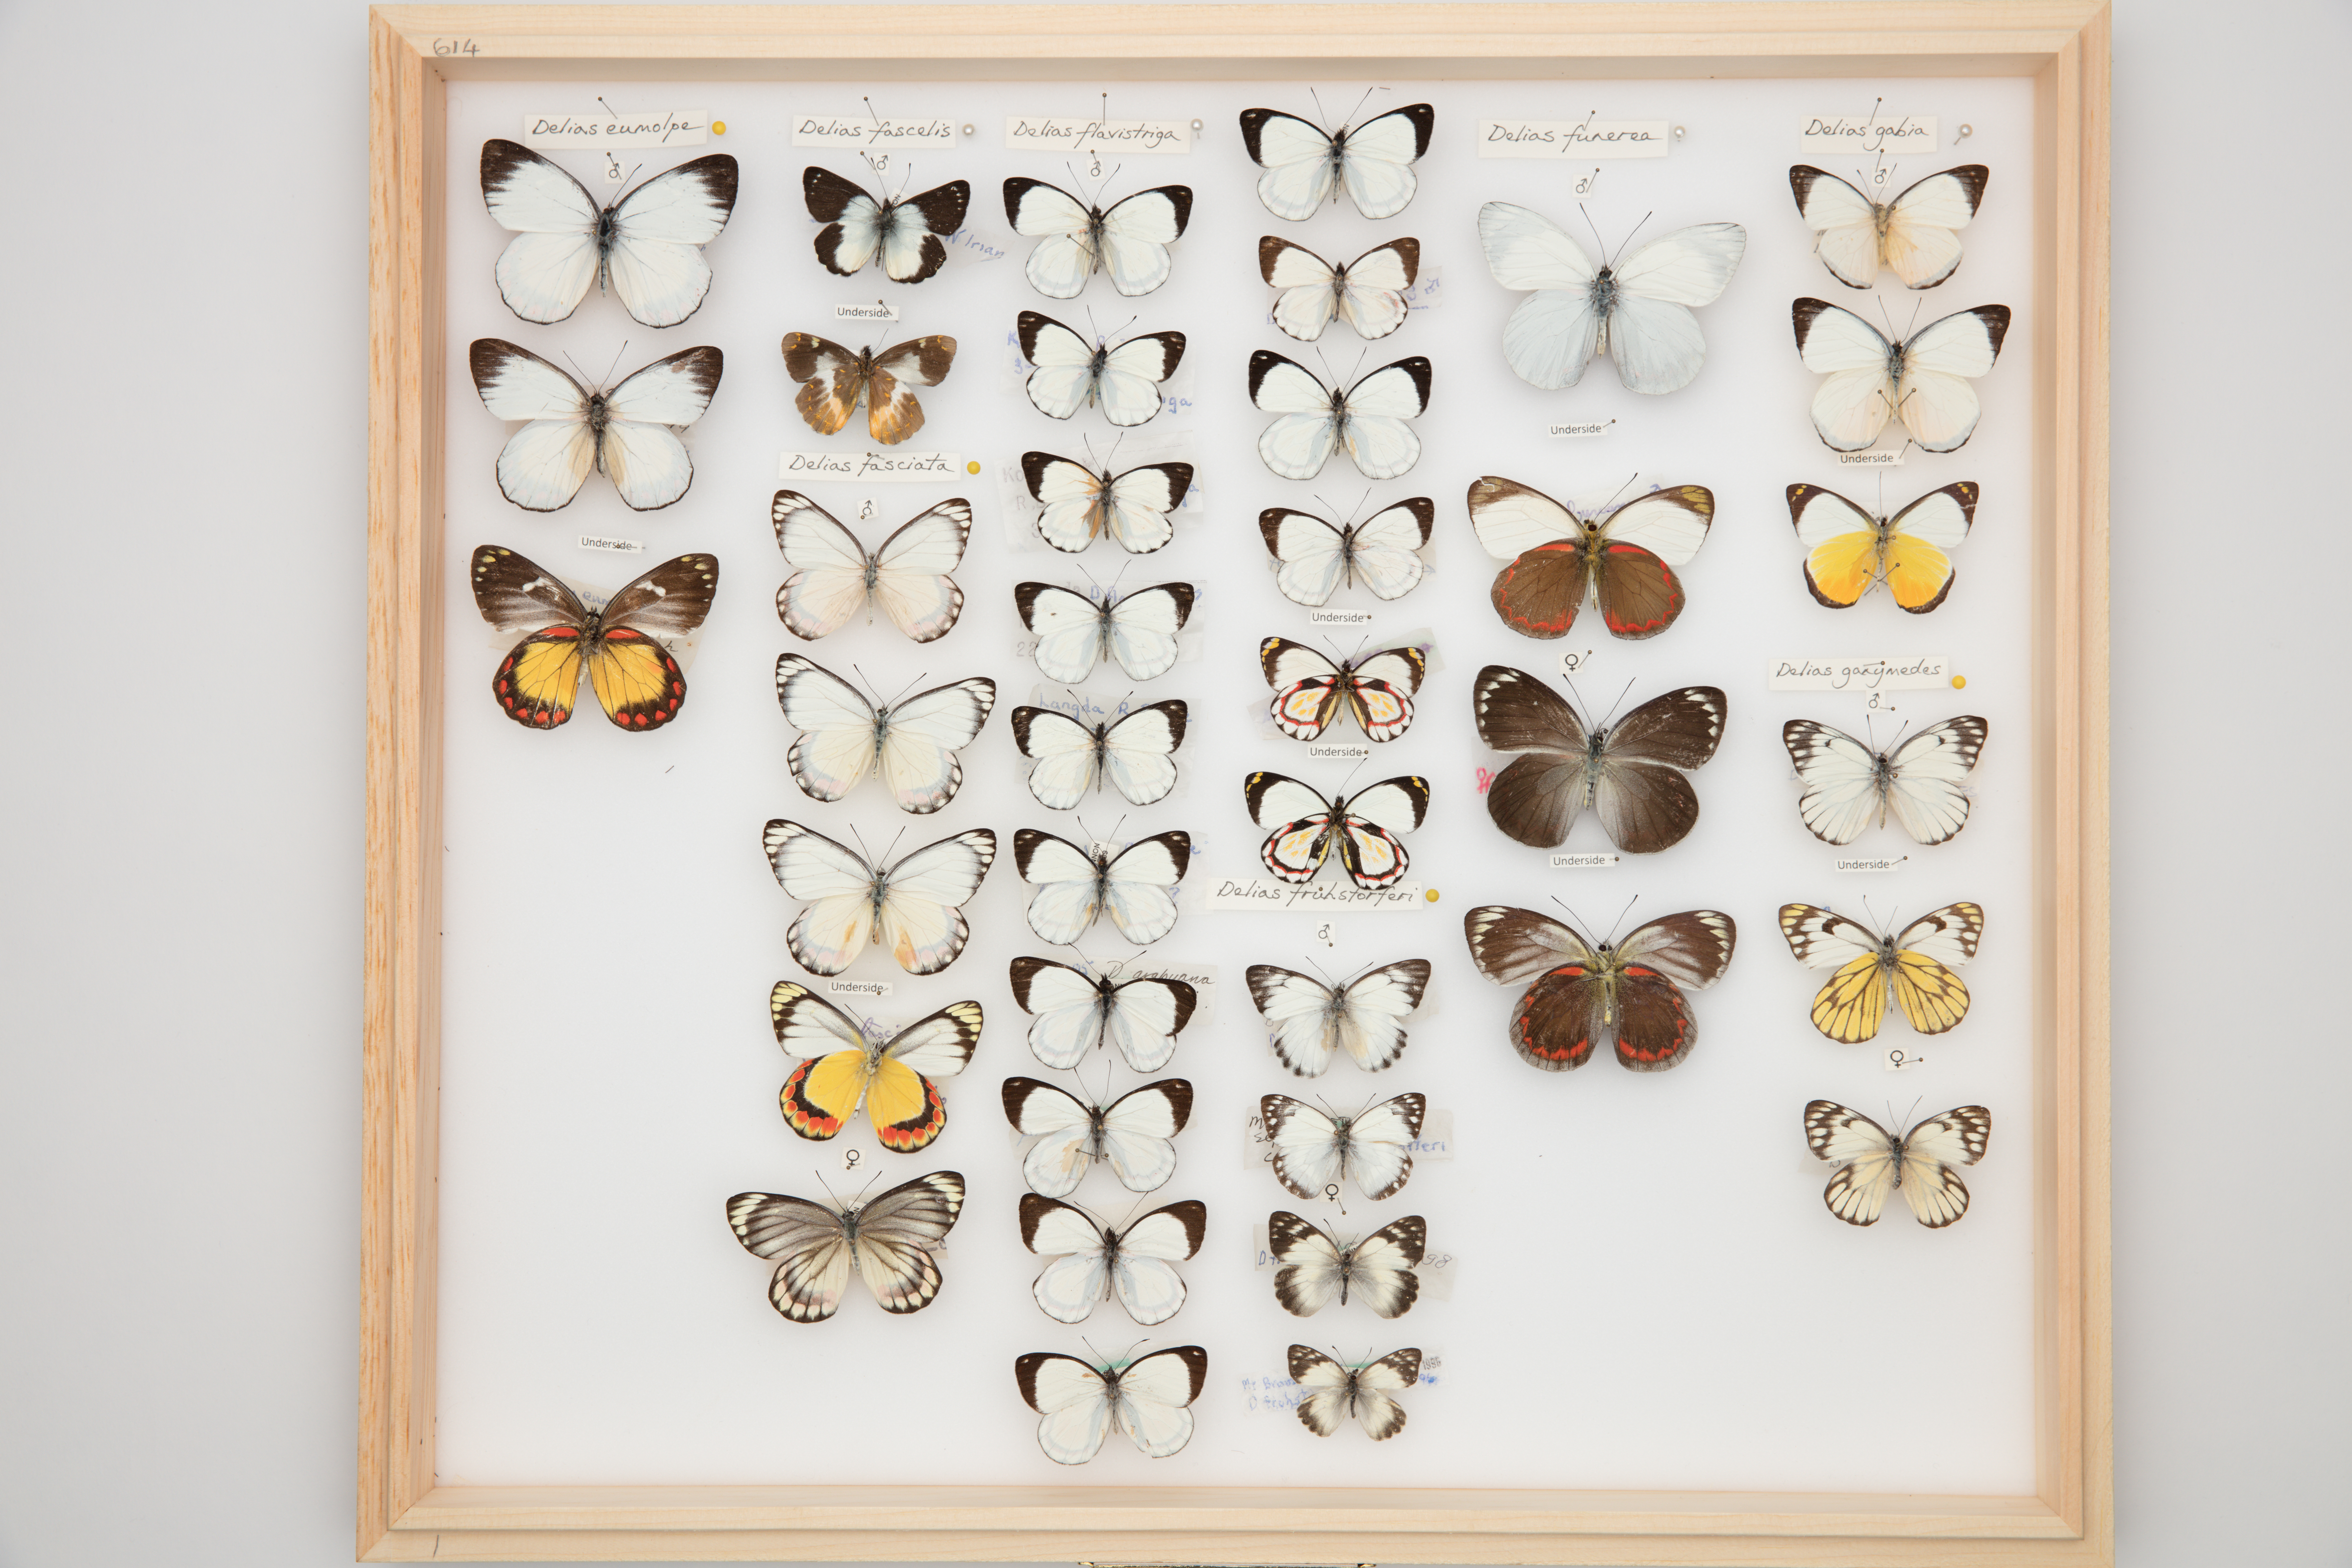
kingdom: Animalia
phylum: Arthropoda
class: Insecta
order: Lepidoptera
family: Pieridae
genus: Delias
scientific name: Delias flavistriga
